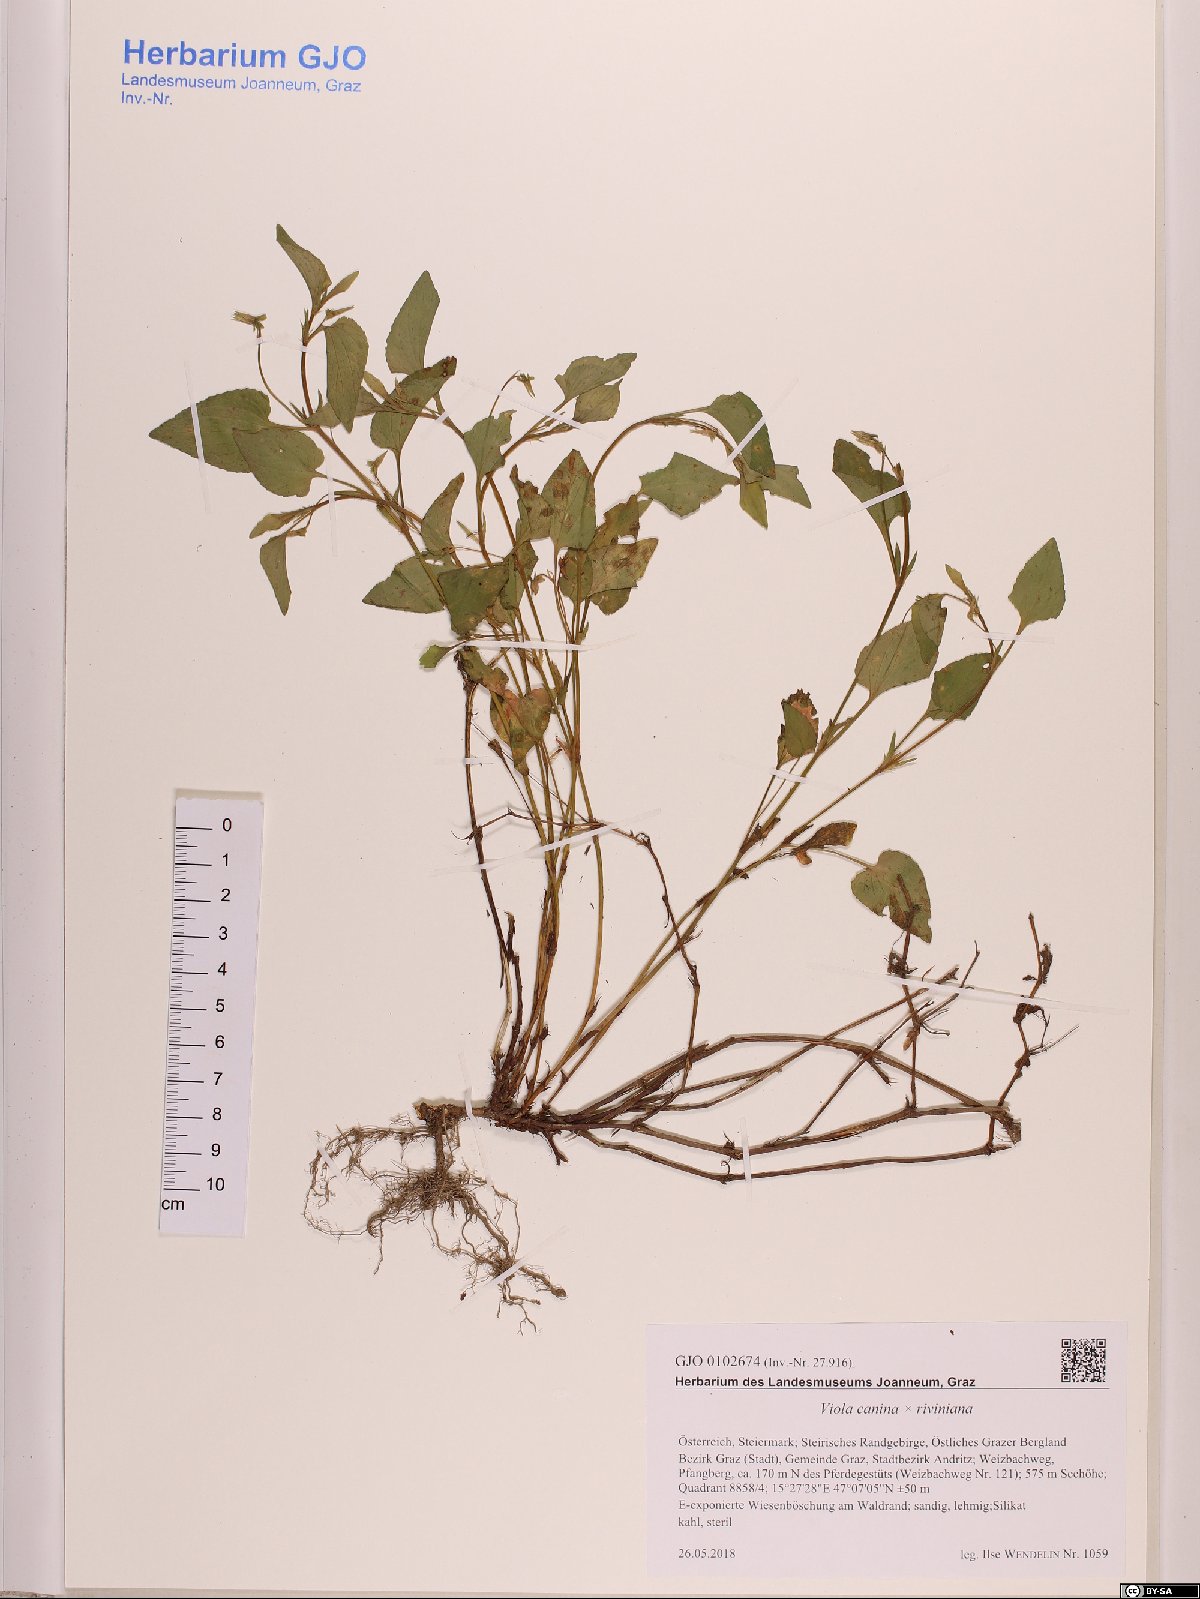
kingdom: Plantae
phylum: Tracheophyta
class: Magnoliopsida
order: Malpighiales
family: Violaceae
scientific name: Violaceae
